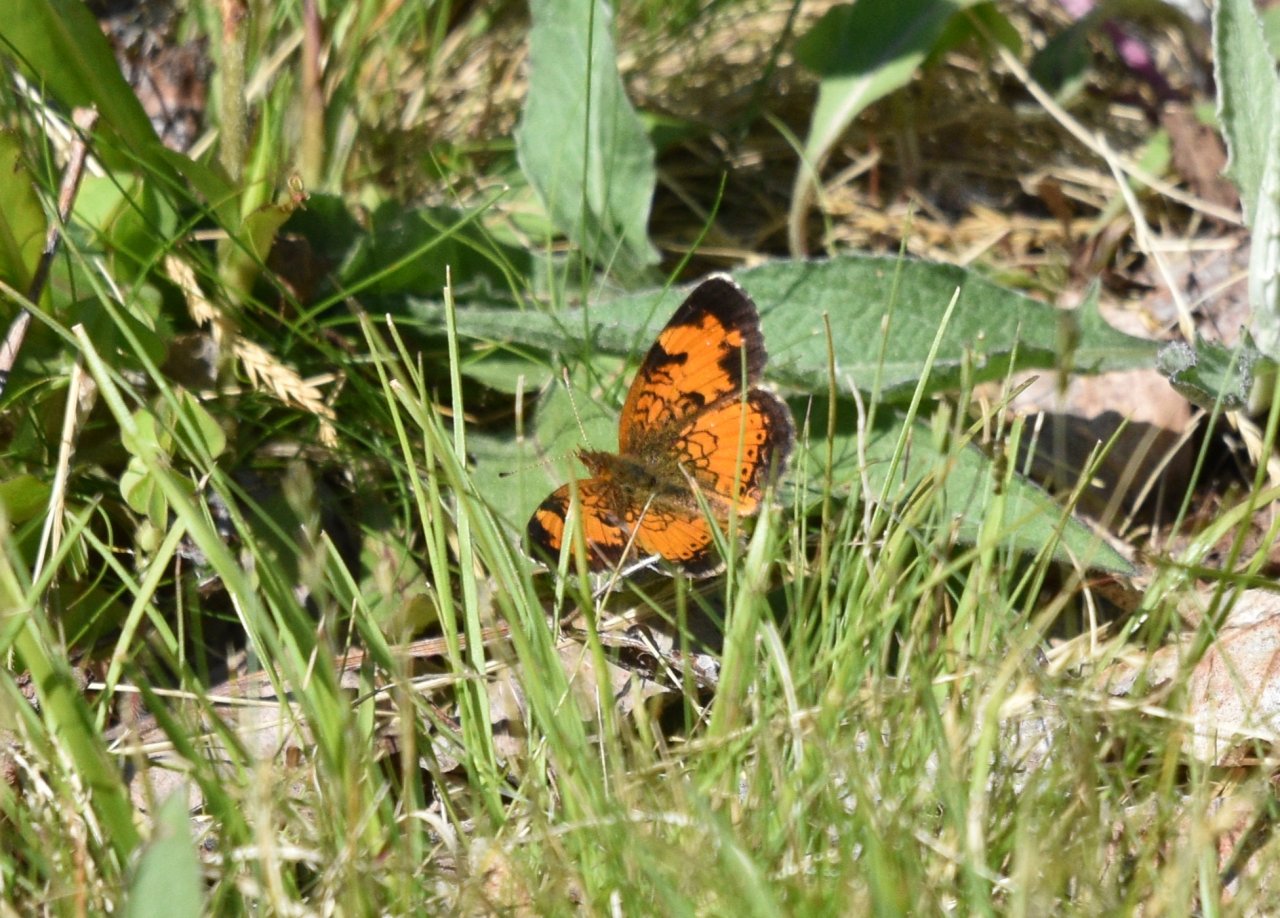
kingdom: Animalia
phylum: Arthropoda
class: Insecta
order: Lepidoptera
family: Nymphalidae
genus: Phyciodes
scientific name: Phyciodes tharos
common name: Northern Crescent
